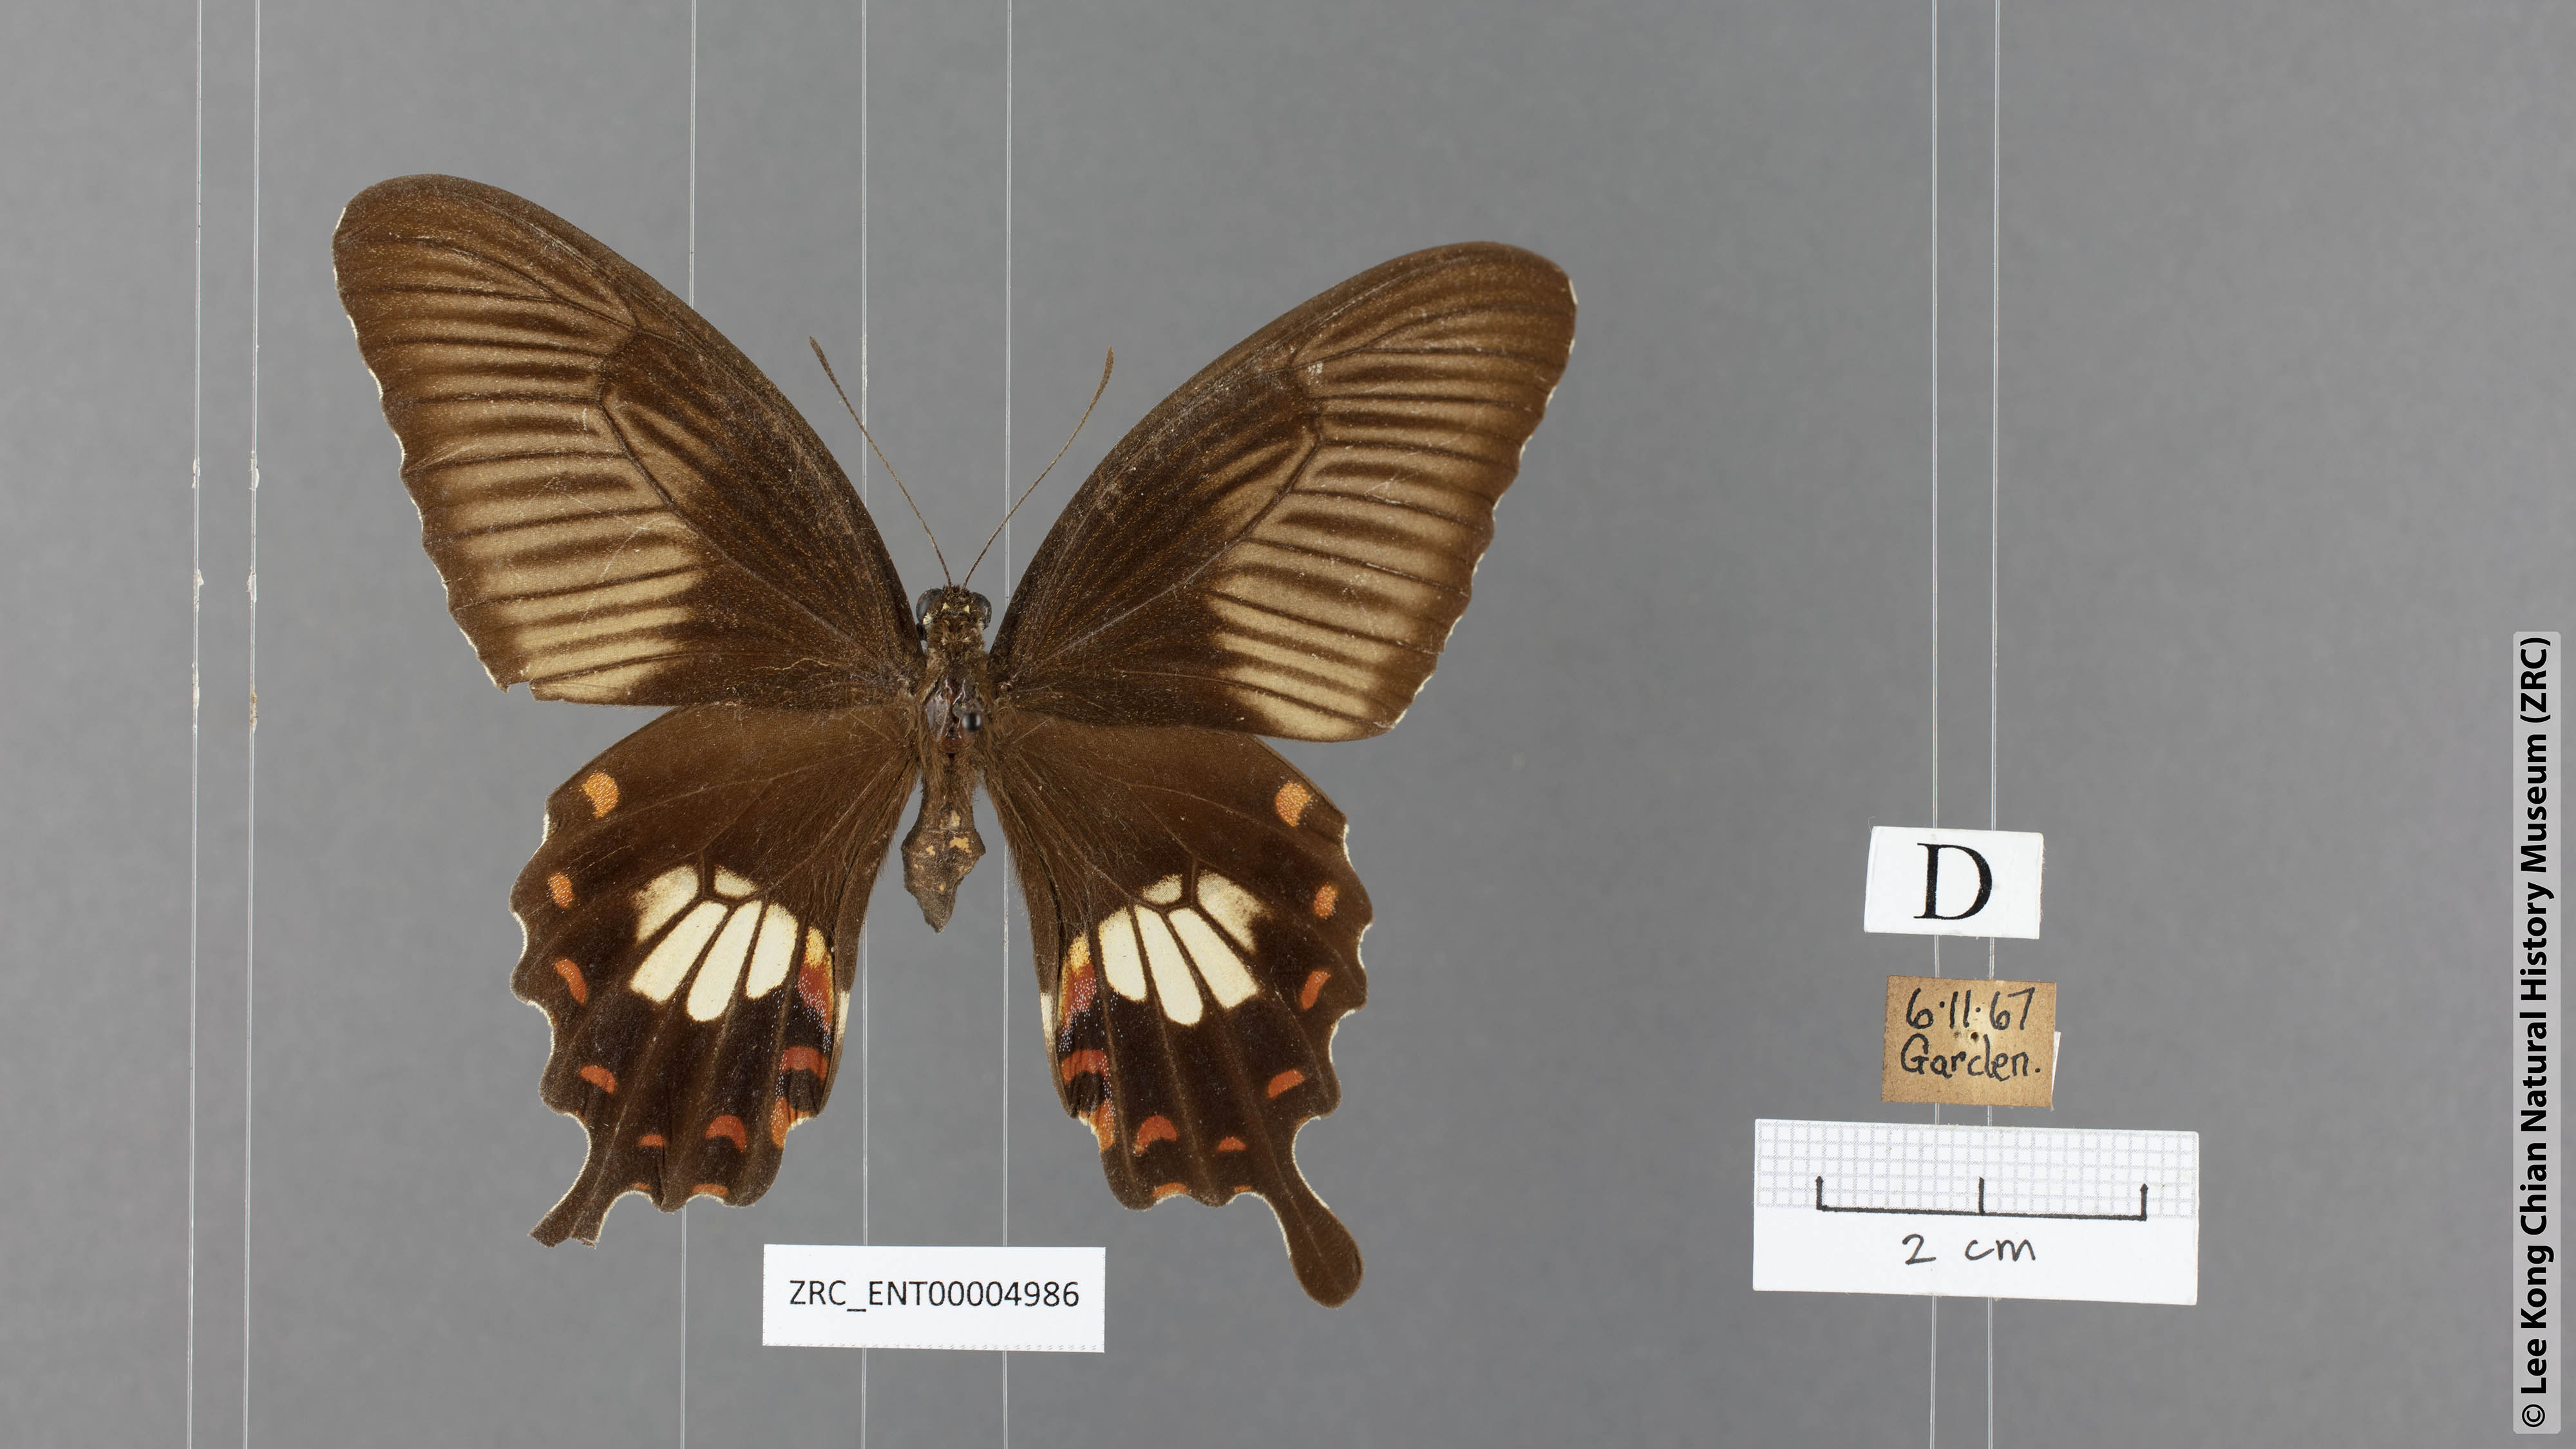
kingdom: Animalia
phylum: Arthropoda
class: Insecta
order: Lepidoptera
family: Papilionidae
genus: Papilio
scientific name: Papilio polytes
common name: Common mormon
